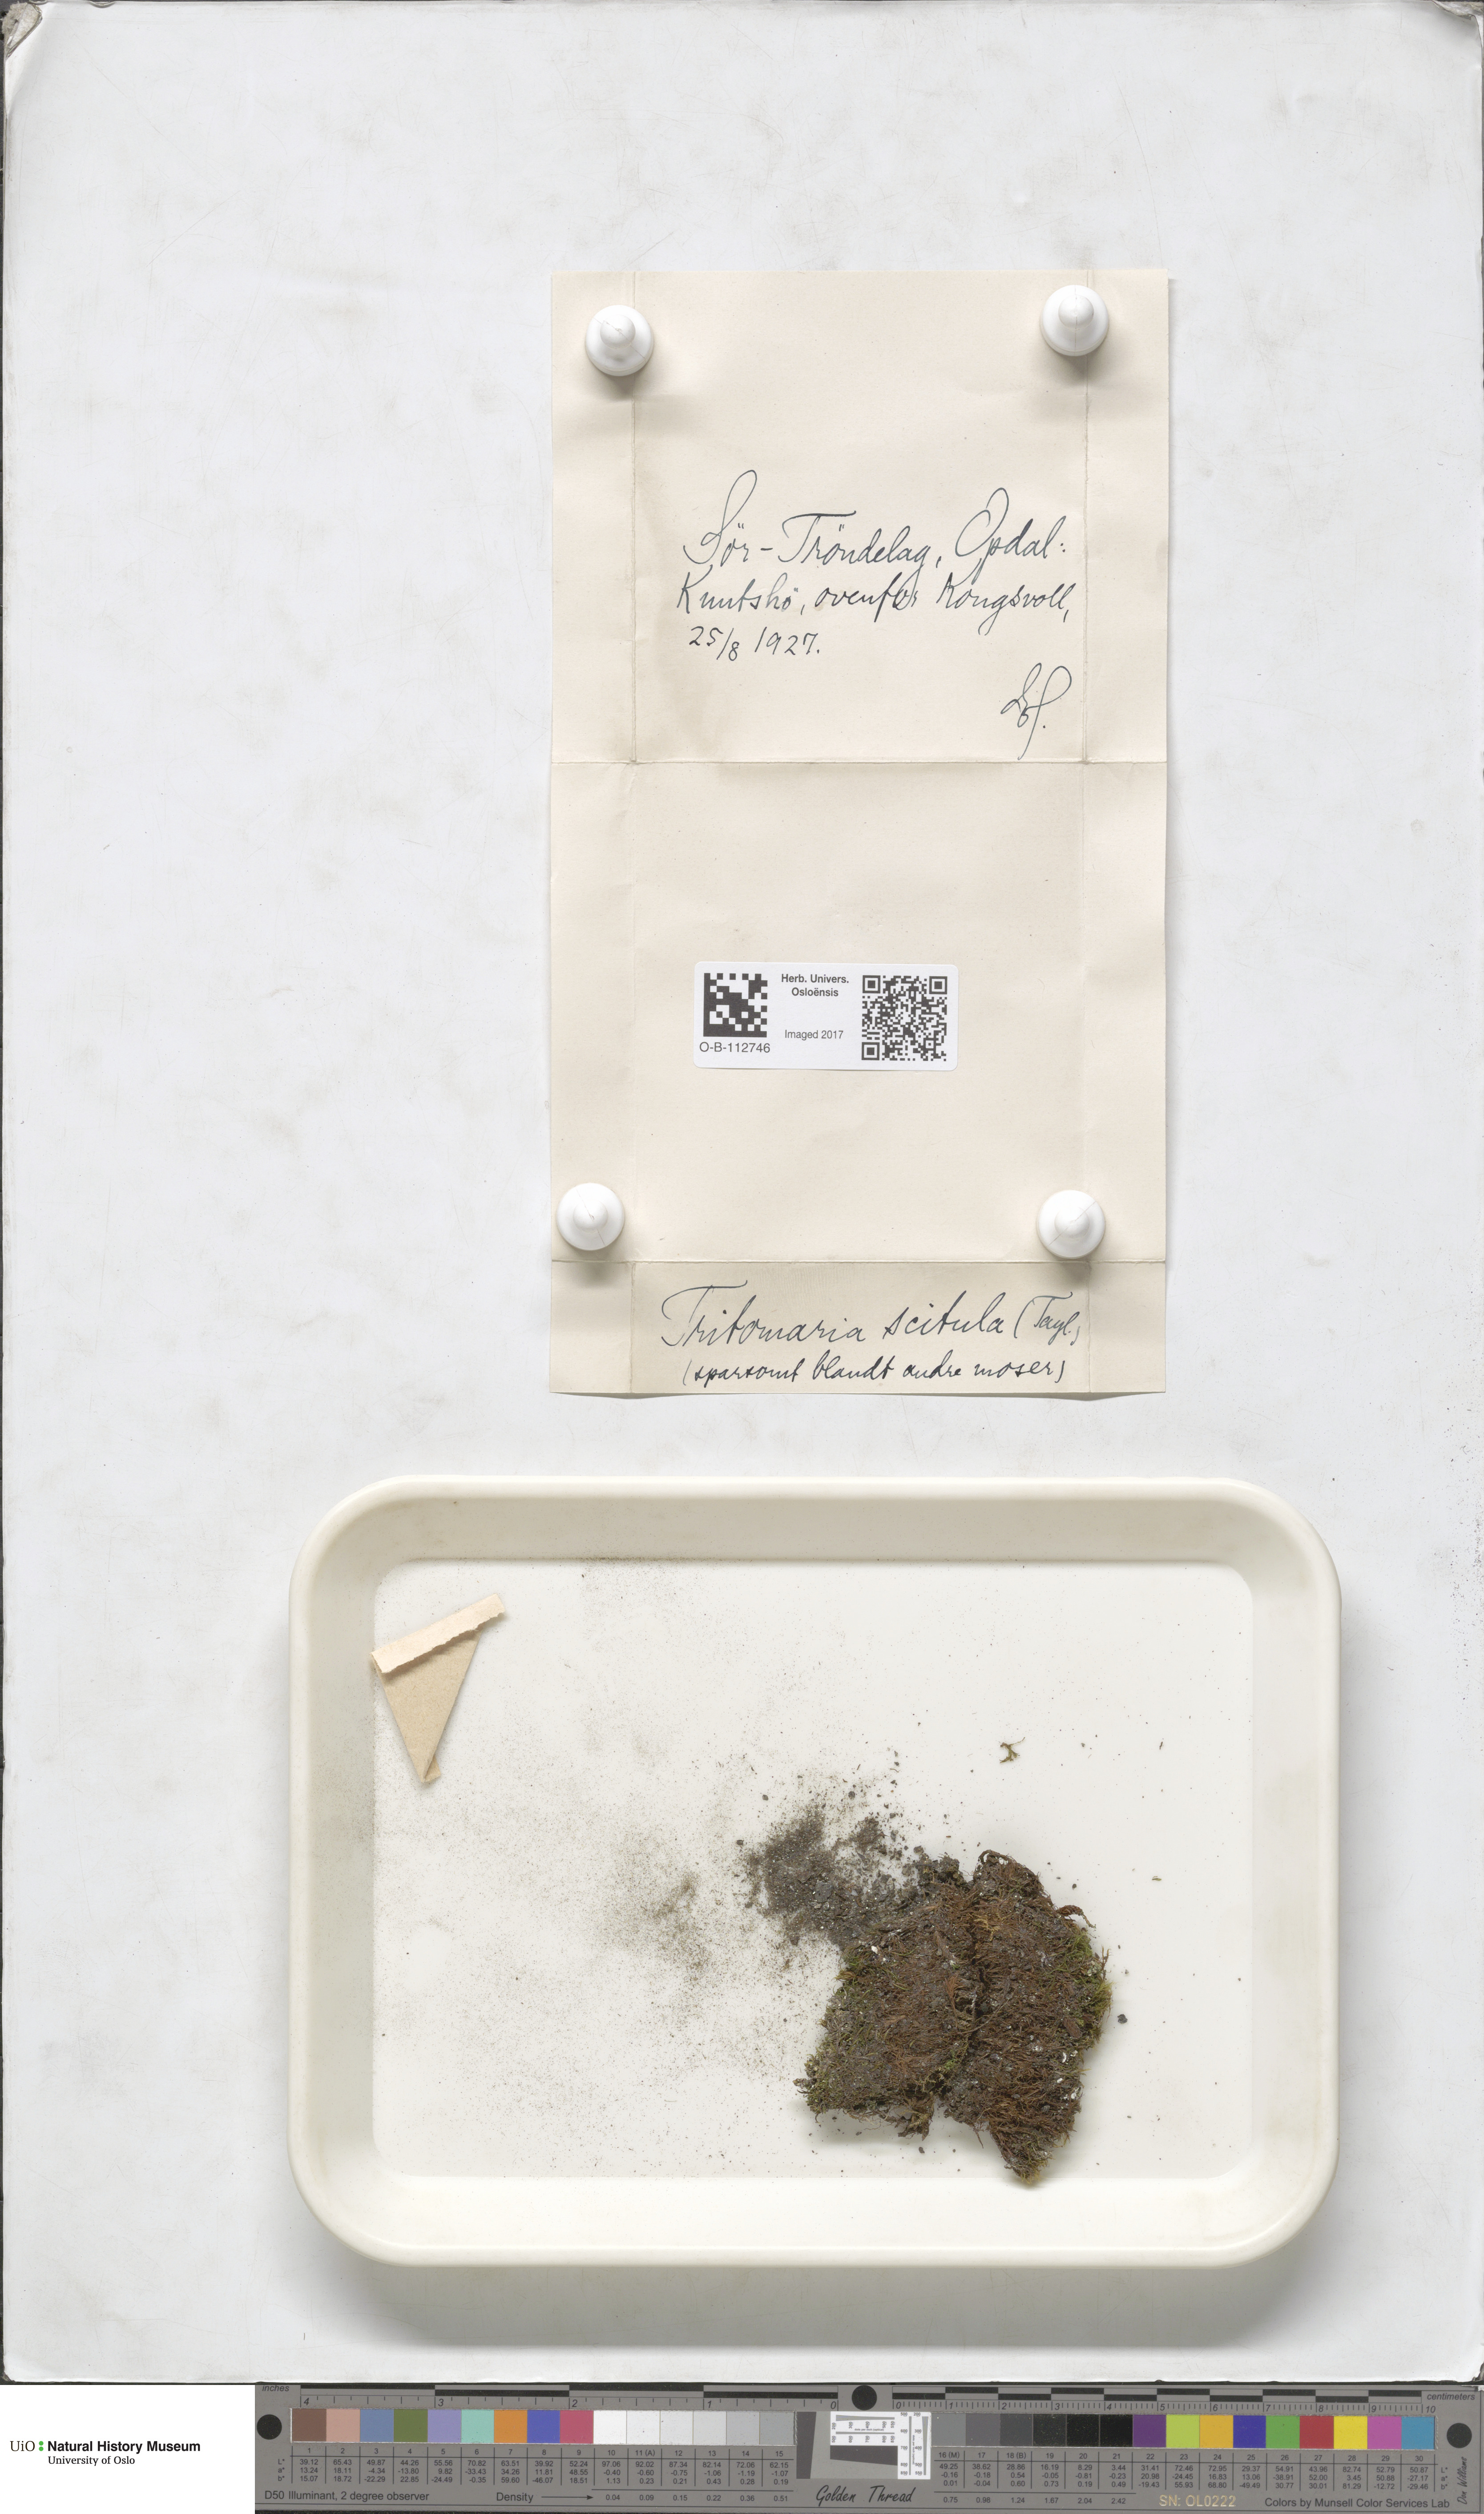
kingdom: Plantae
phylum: Marchantiophyta
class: Jungermanniopsida
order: Jungermanniales
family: Lophoziaceae
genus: Tritomaria
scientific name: Tritomaria scitula
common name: Mountain notchwort
